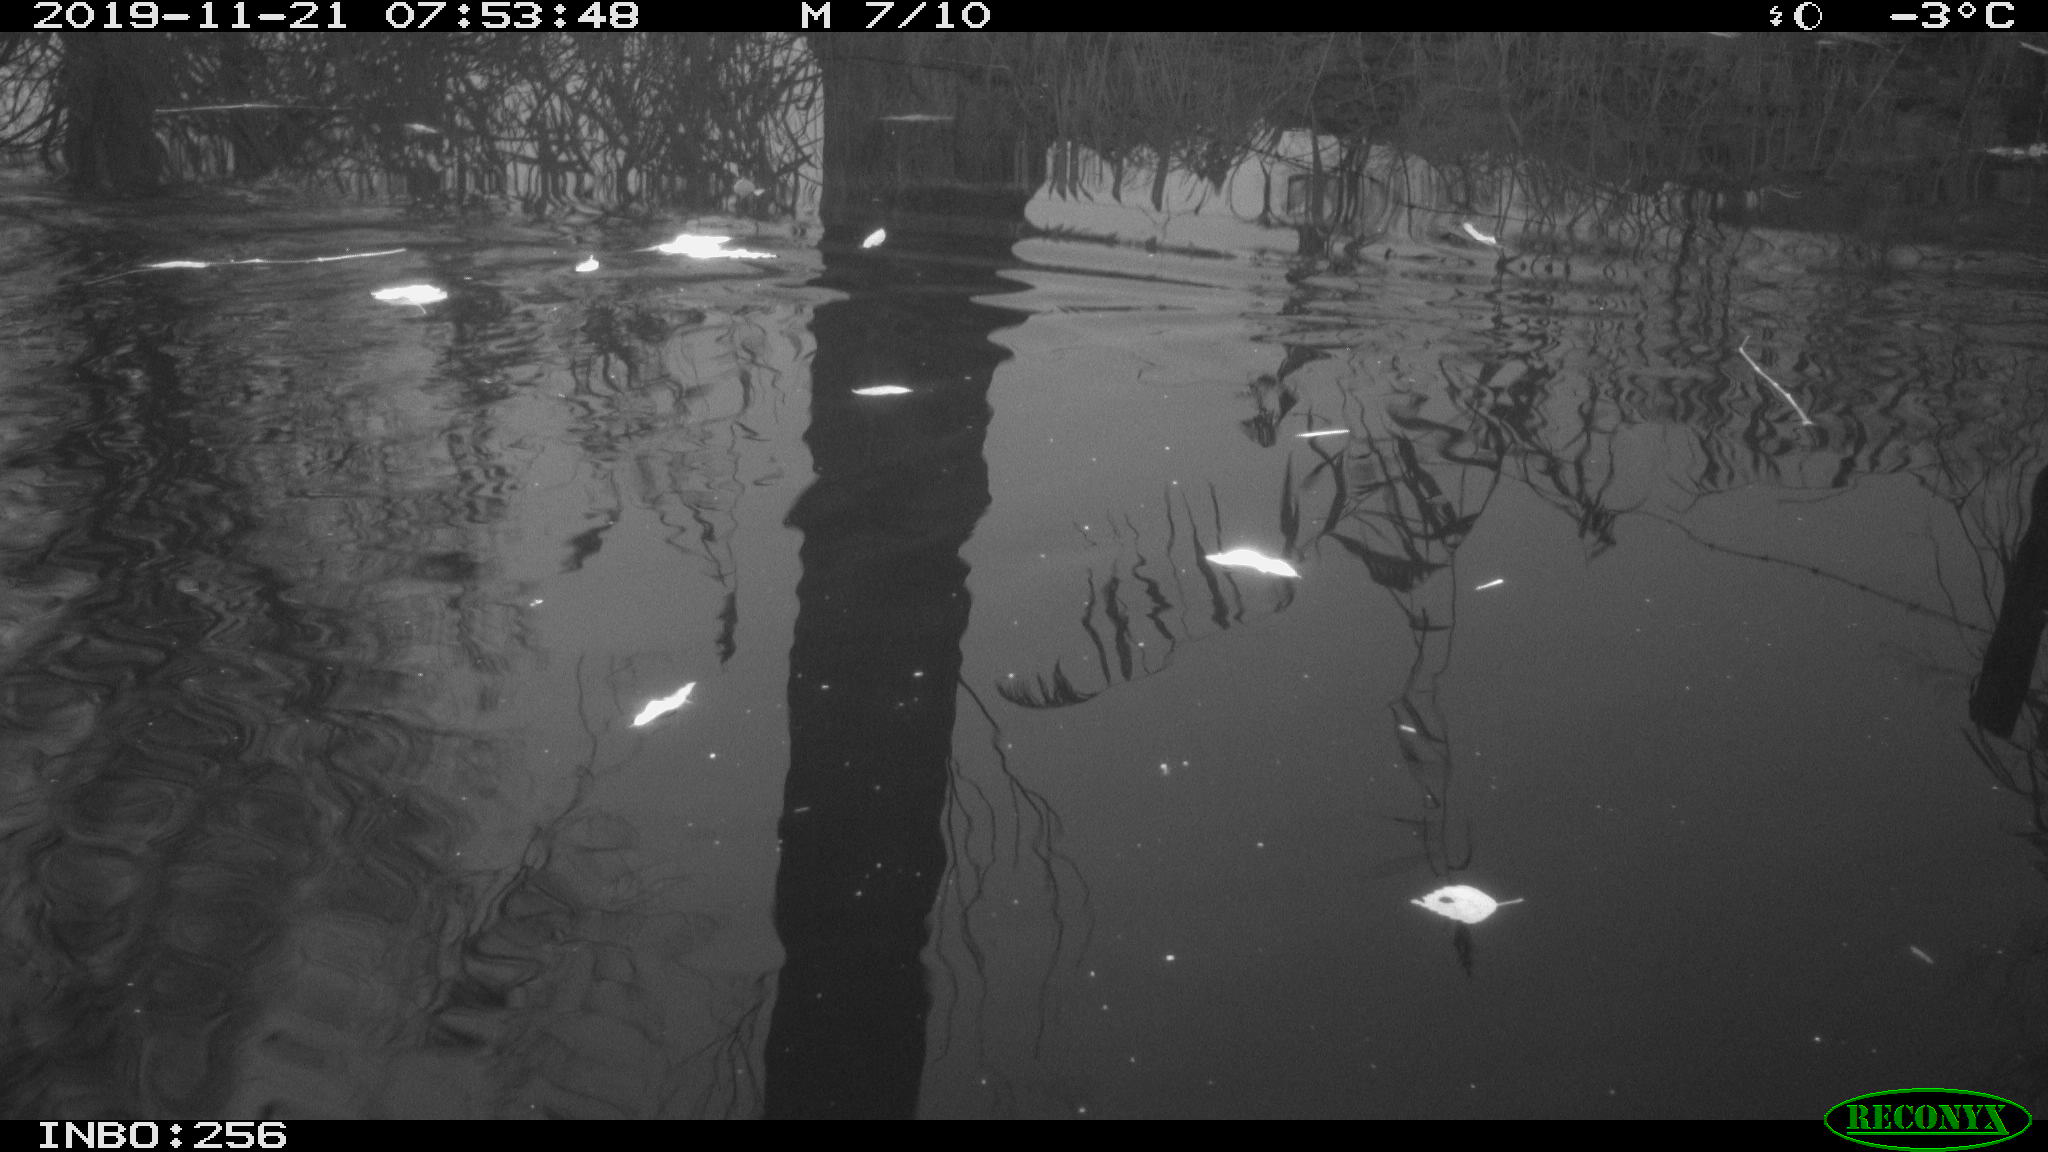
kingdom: Animalia
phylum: Chordata
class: Aves
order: Gruiformes
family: Rallidae
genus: Gallinula
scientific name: Gallinula chloropus
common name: Common moorhen
